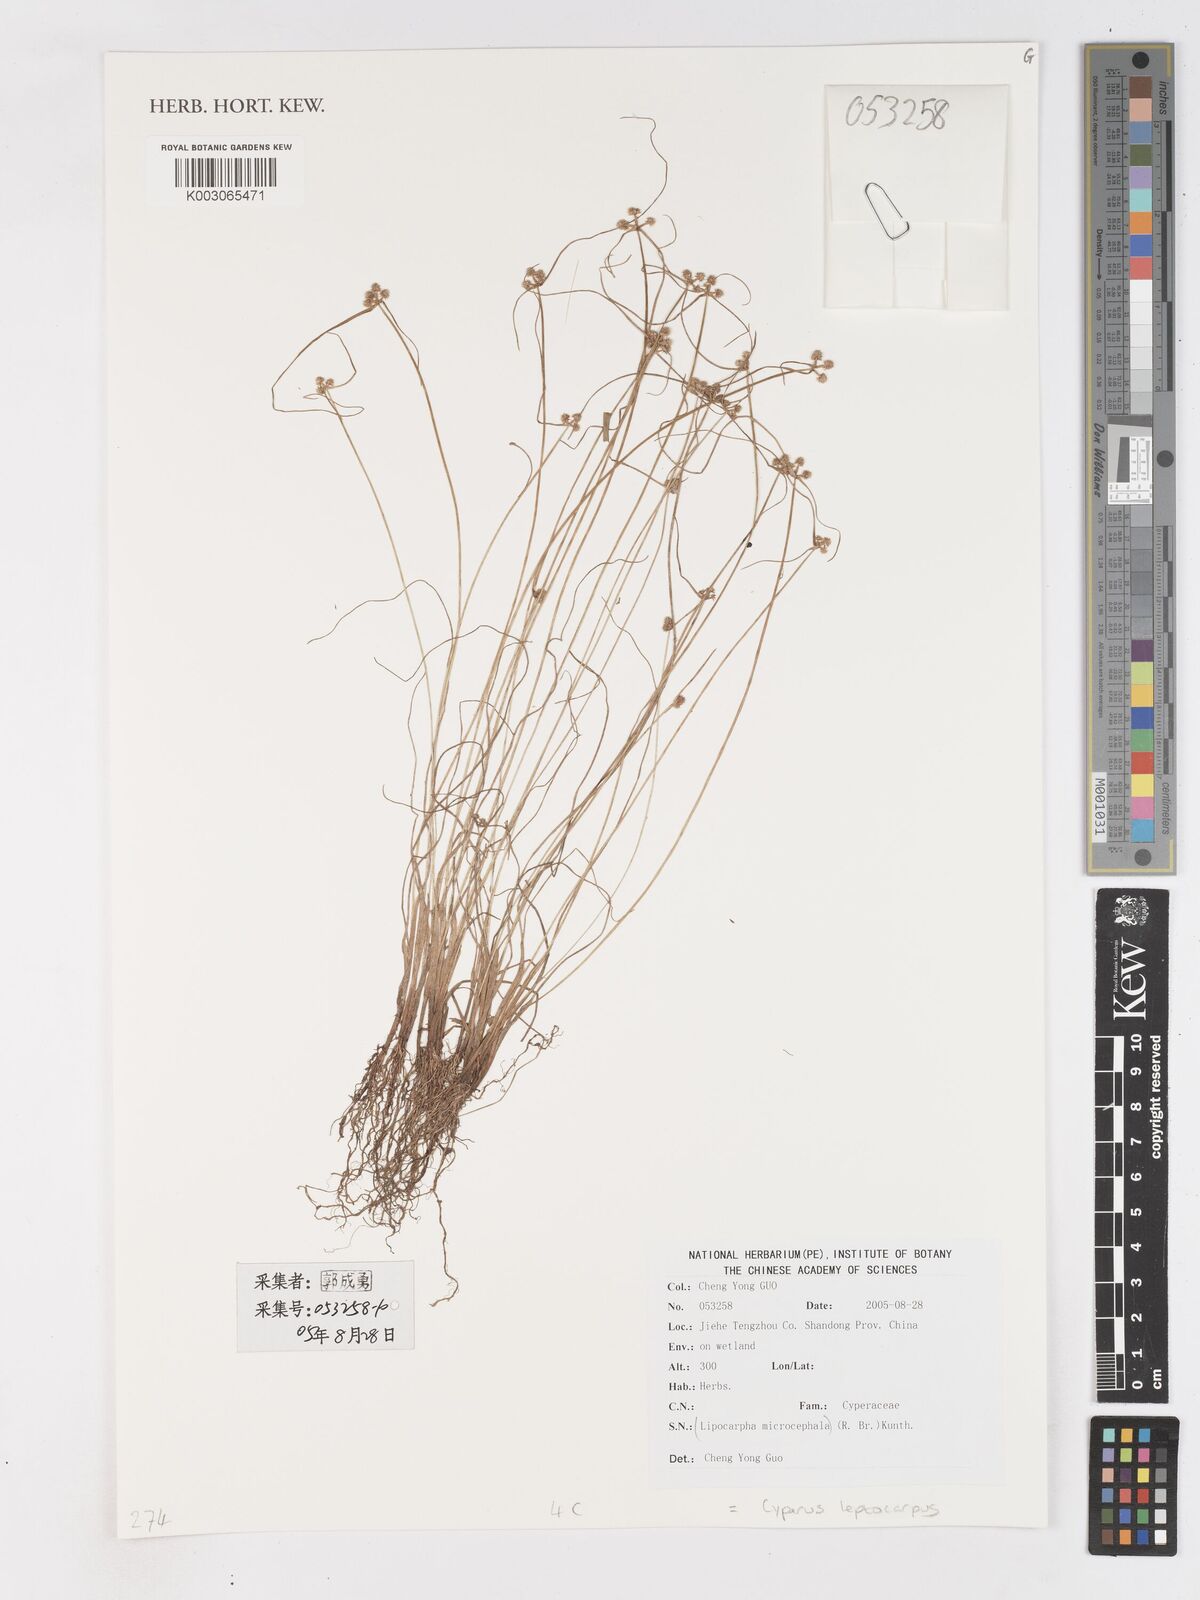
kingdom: Plantae
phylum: Tracheophyta
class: Liliopsida
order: Poales
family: Cyperaceae
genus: Cyperus
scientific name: Cyperus leptocarpus
